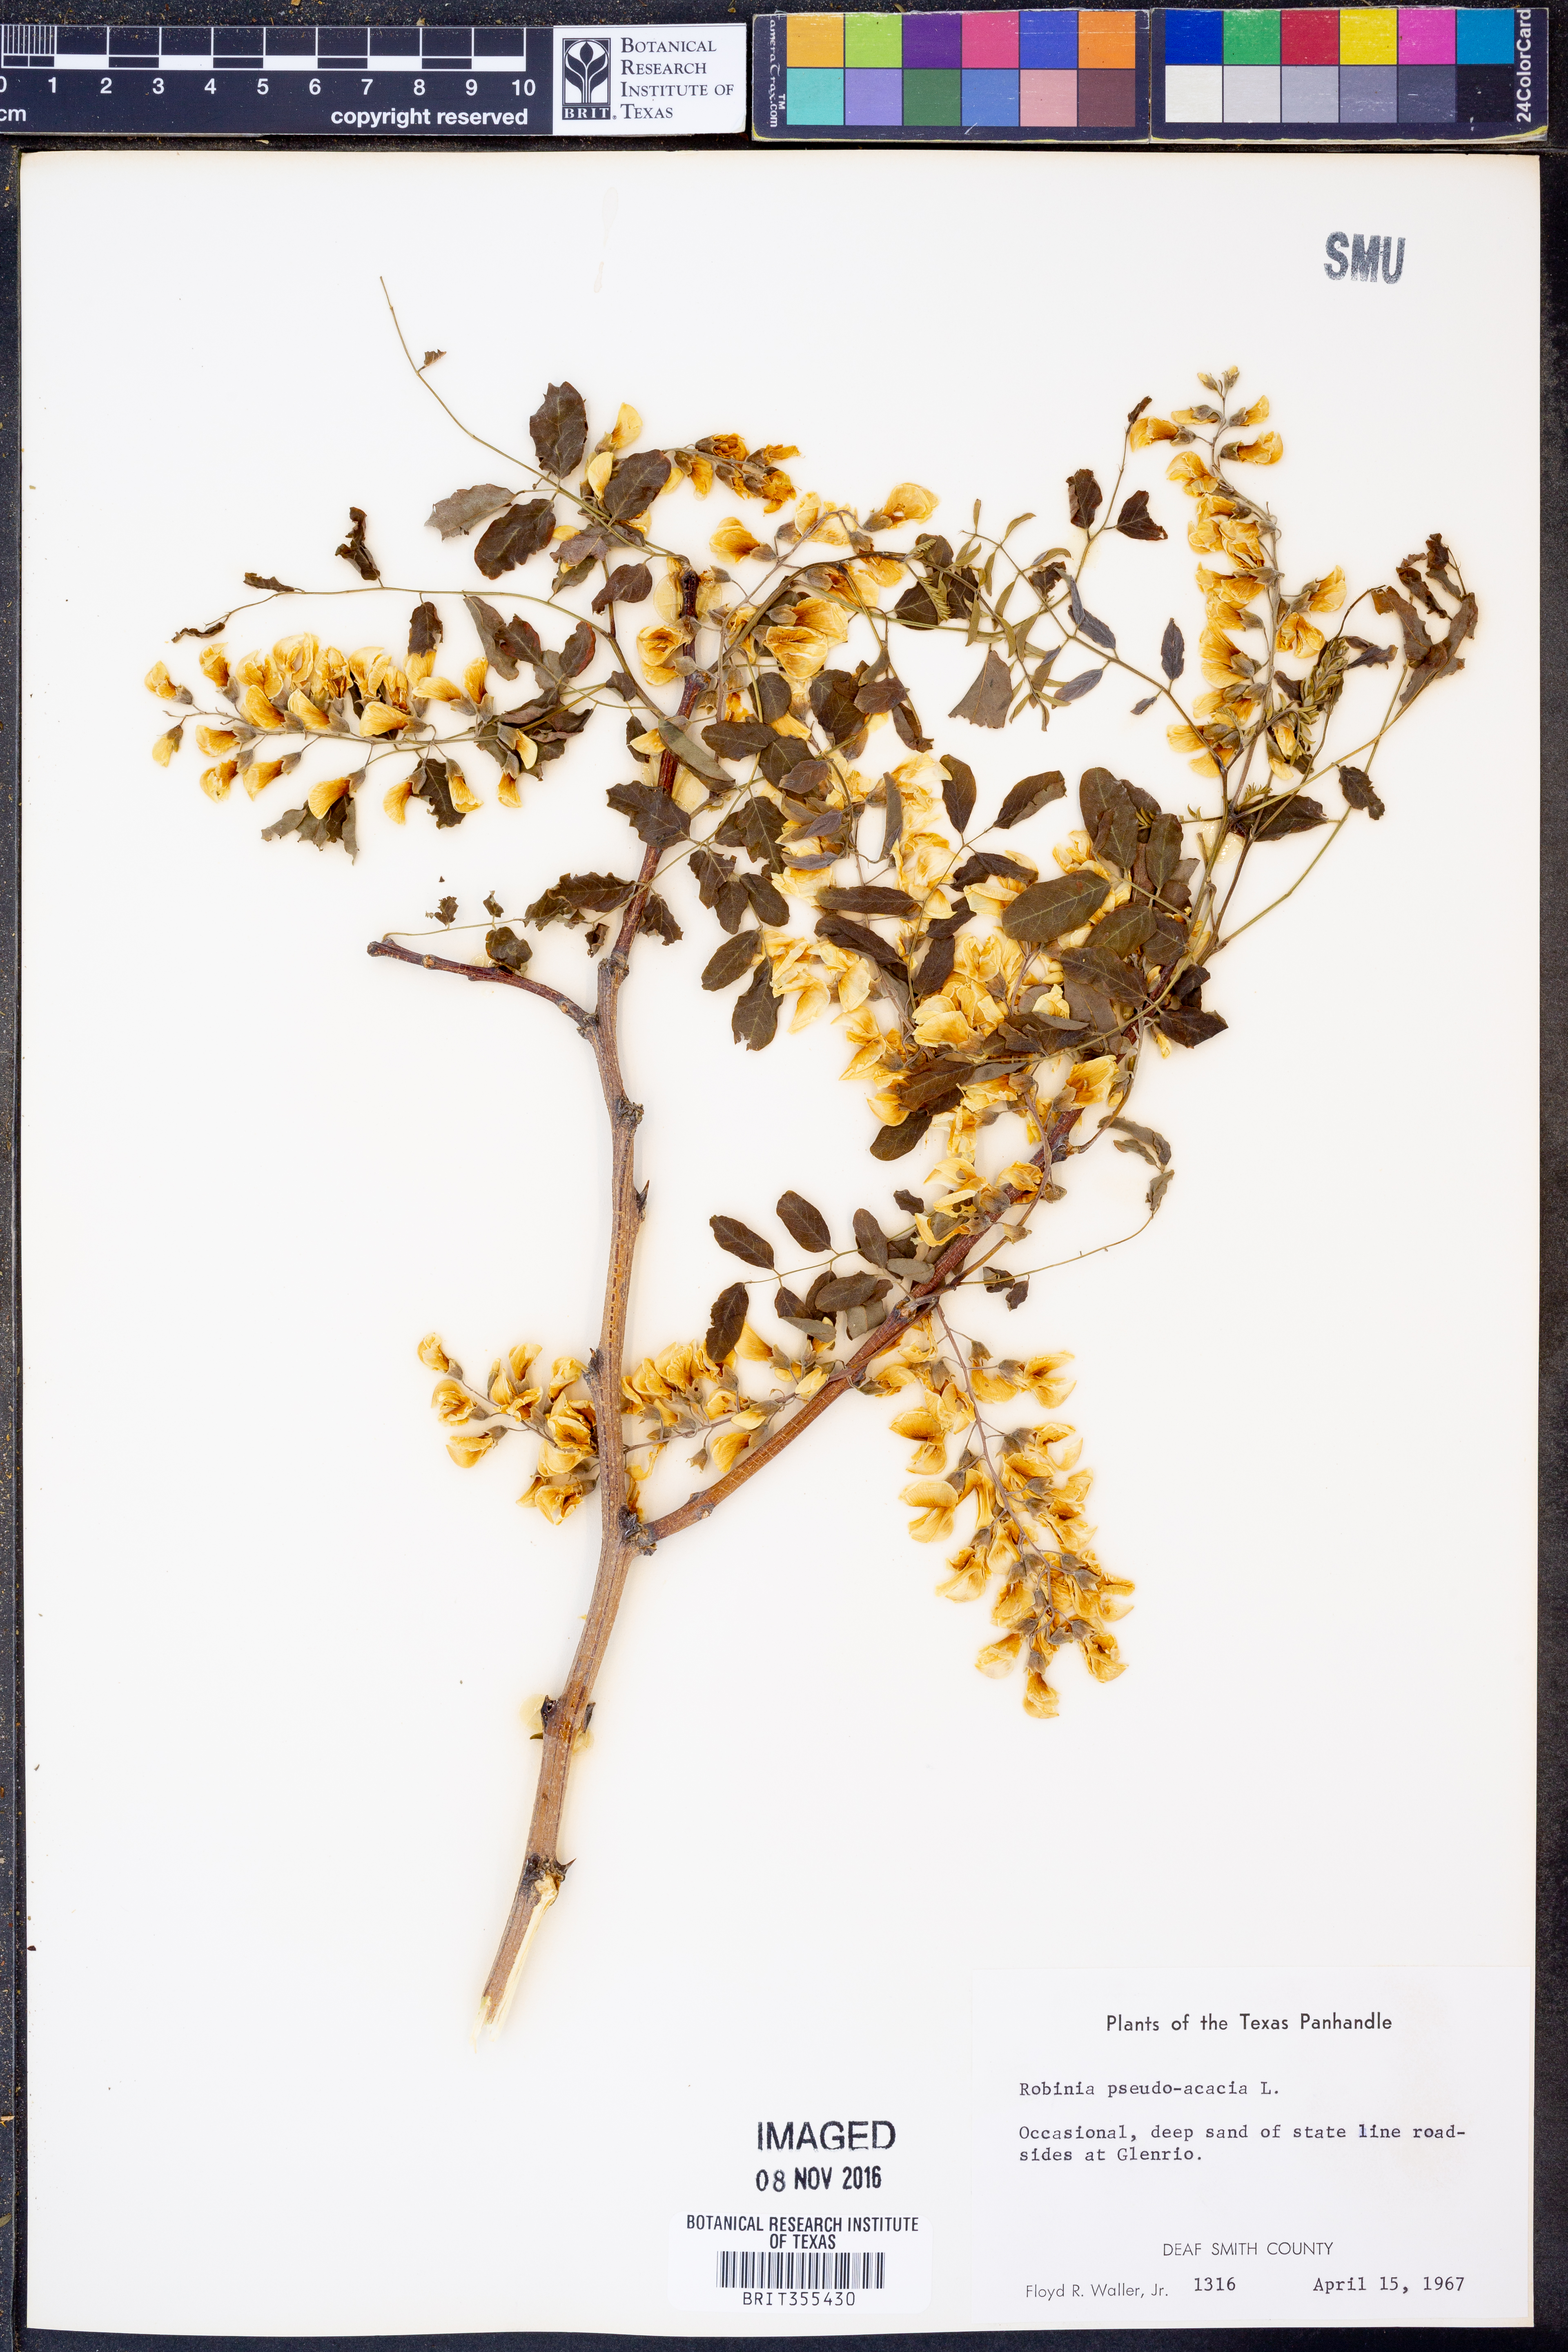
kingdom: Plantae
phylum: Tracheophyta
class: Magnoliopsida
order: Fabales
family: Fabaceae
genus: Robinia
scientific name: Robinia pseudoacacia
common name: Black locust
